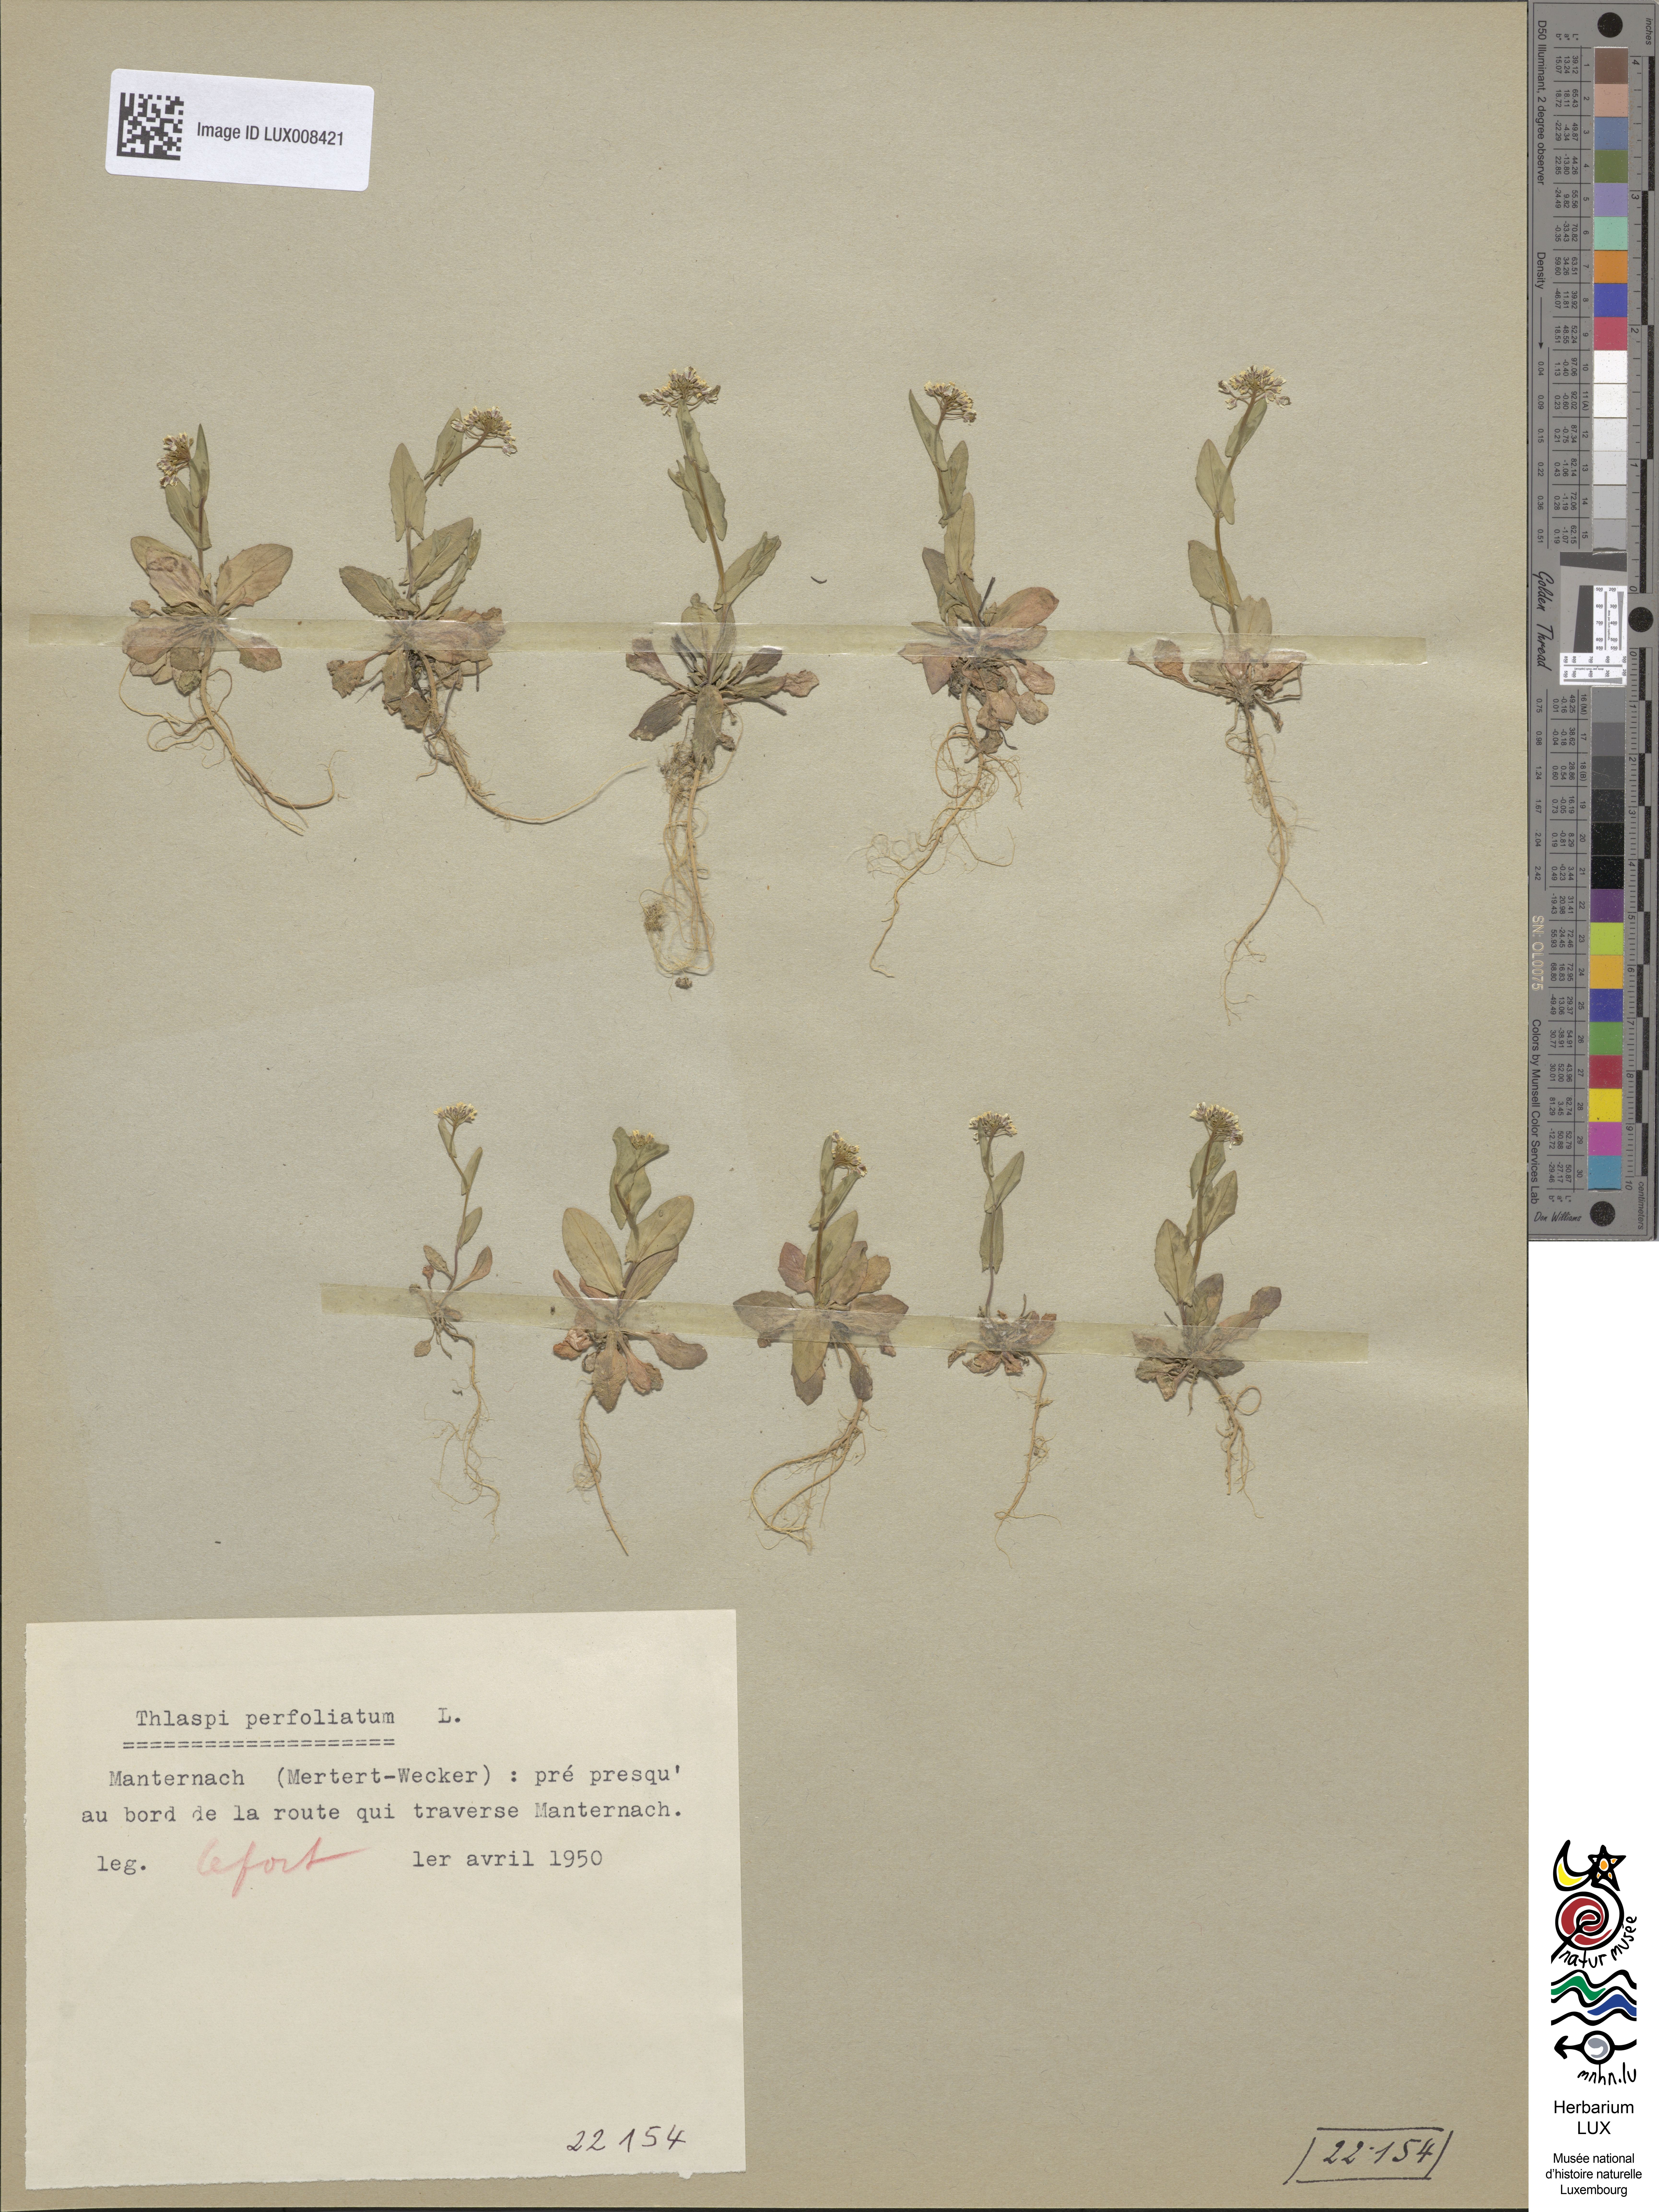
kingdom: Plantae
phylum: Tracheophyta
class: Magnoliopsida
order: Brassicales
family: Brassicaceae
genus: Noccaea
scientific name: Noccaea perfoliata
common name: Perfoliate pennycress
